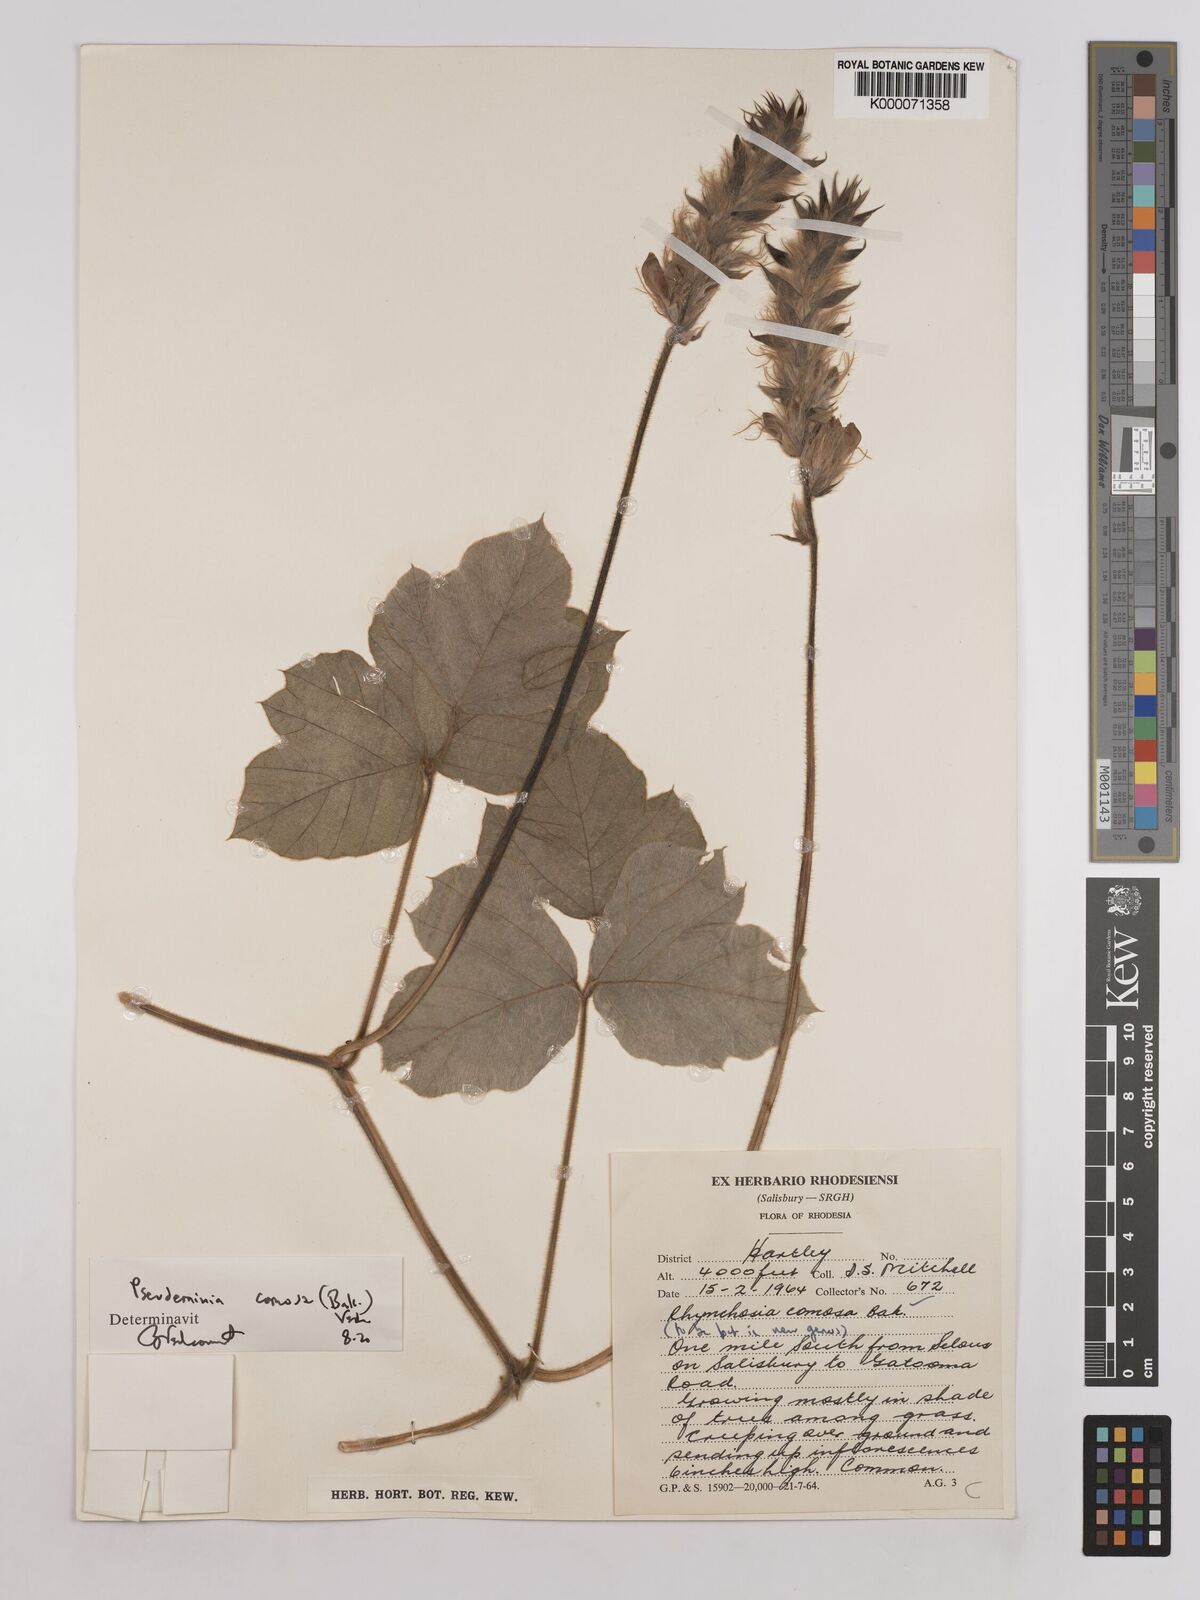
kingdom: Plantae
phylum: Tracheophyta
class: Magnoliopsida
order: Fabales
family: Fabaceae
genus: Pseudeminia
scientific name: Pseudeminia comosa
